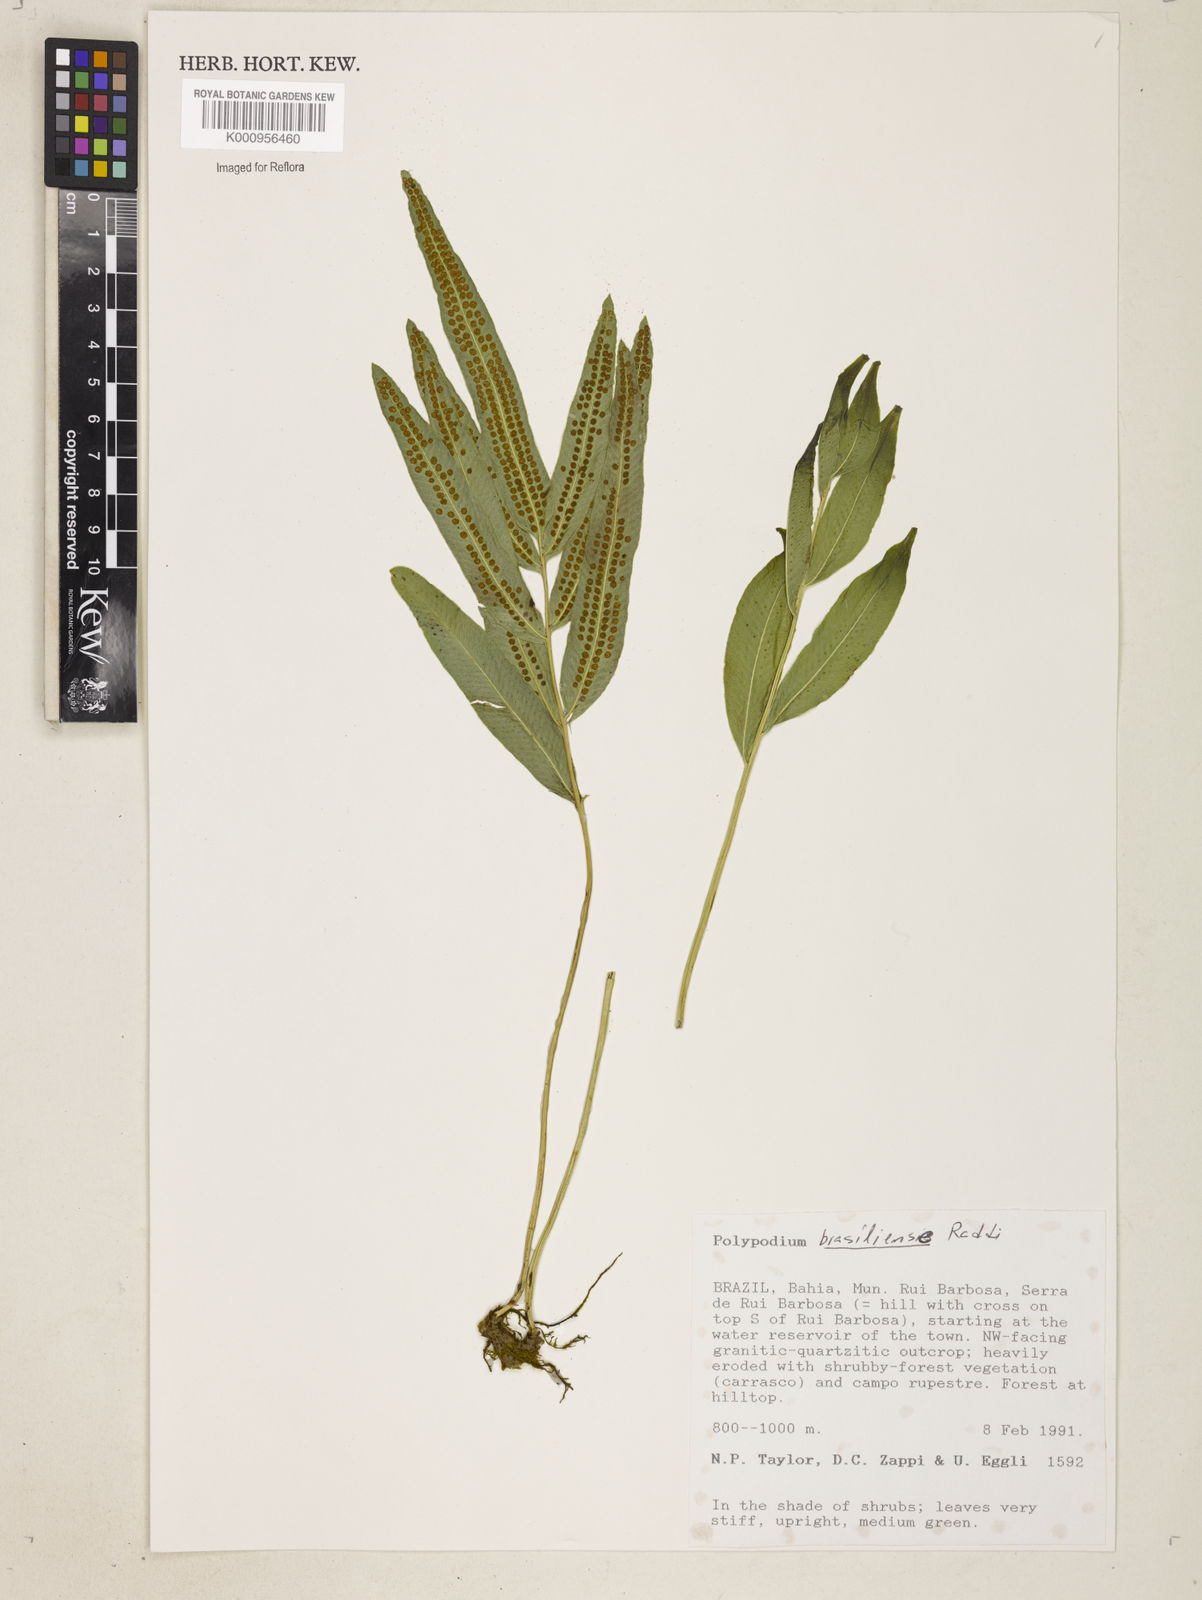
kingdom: Plantae
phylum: Tracheophyta
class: Polypodiopsida
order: Polypodiales
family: Polypodiaceae
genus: Polypodium
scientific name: Polypodium
